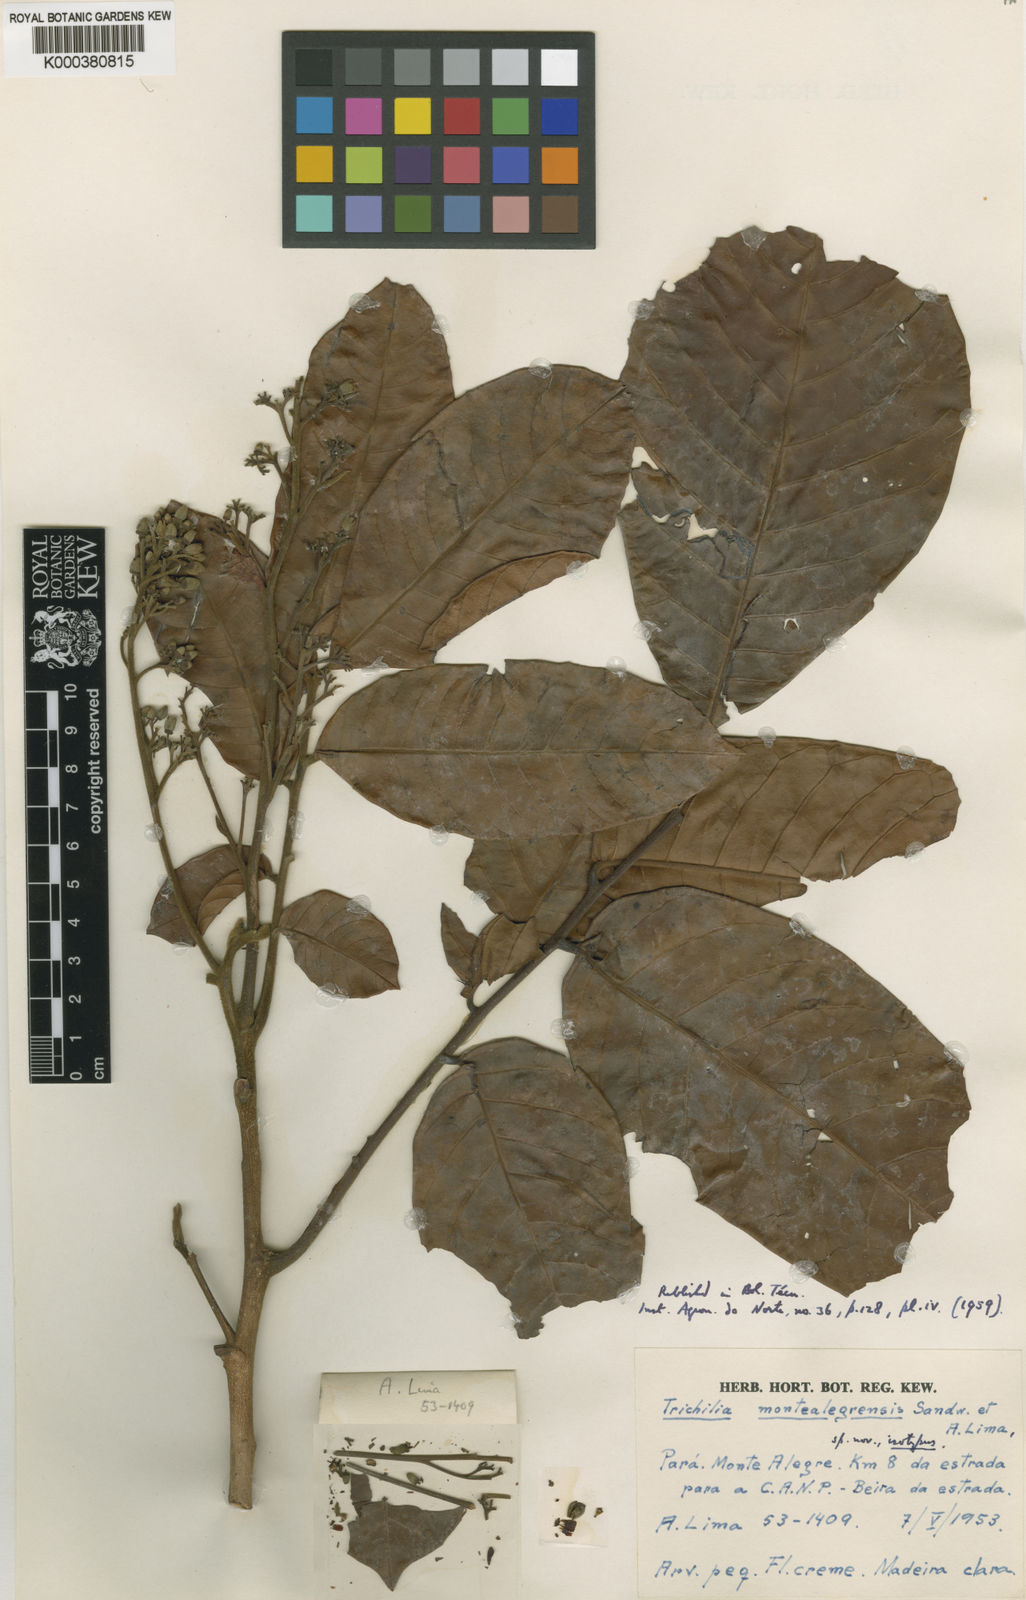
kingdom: Plantae
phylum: Tracheophyta
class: Magnoliopsida
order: Sapindales
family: Meliaceae
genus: Trichilia
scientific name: Trichilia solitudinis
